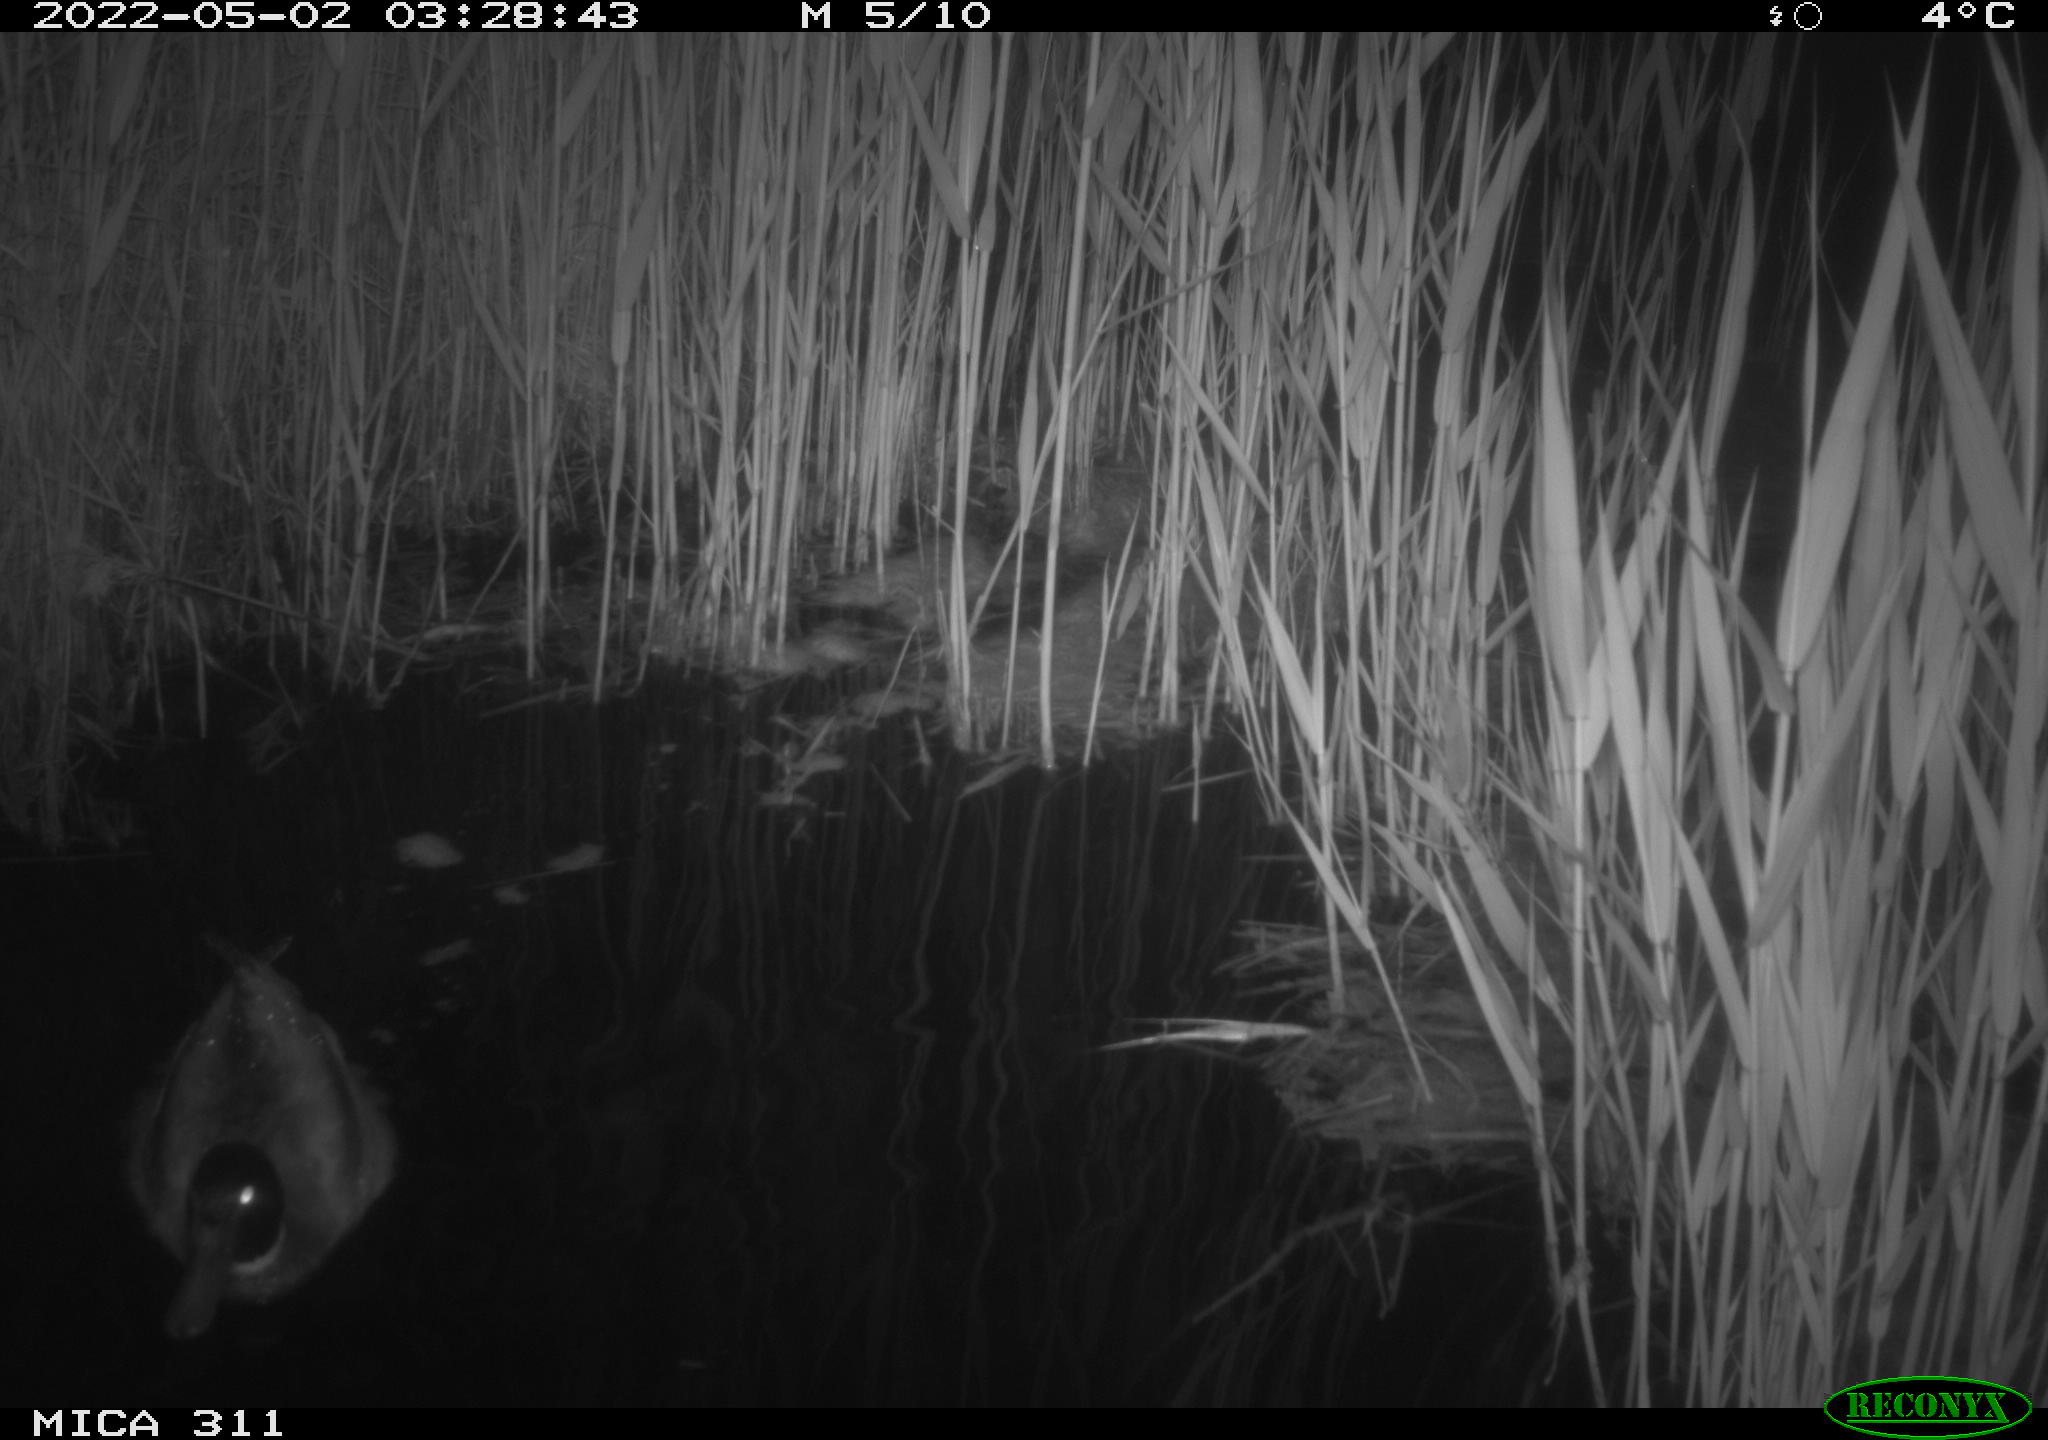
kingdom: Animalia
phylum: Chordata
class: Aves
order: Anseriformes
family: Anatidae
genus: Anas
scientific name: Anas platyrhynchos
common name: Mallard
